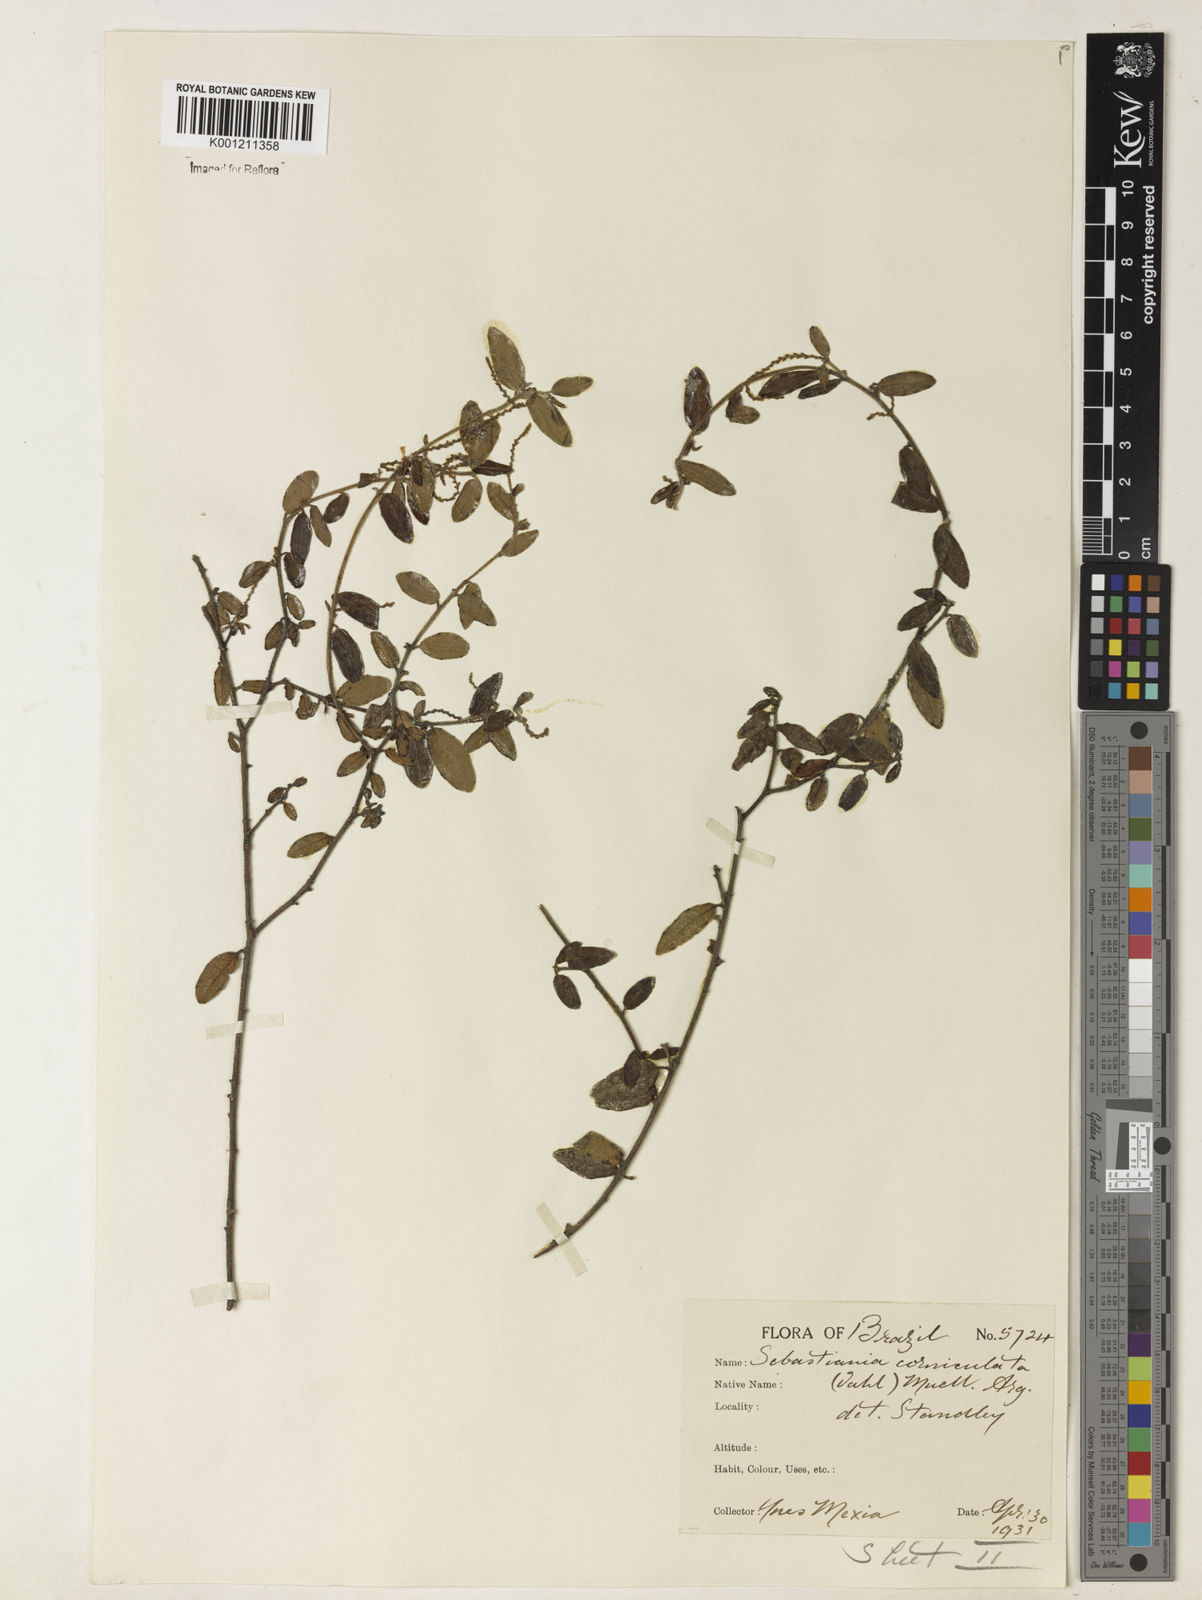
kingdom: Plantae
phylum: Tracheophyta
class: Magnoliopsida
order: Malpighiales
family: Euphorbiaceae
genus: Microstachys
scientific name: Microstachys corniculata
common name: Hato tejas
